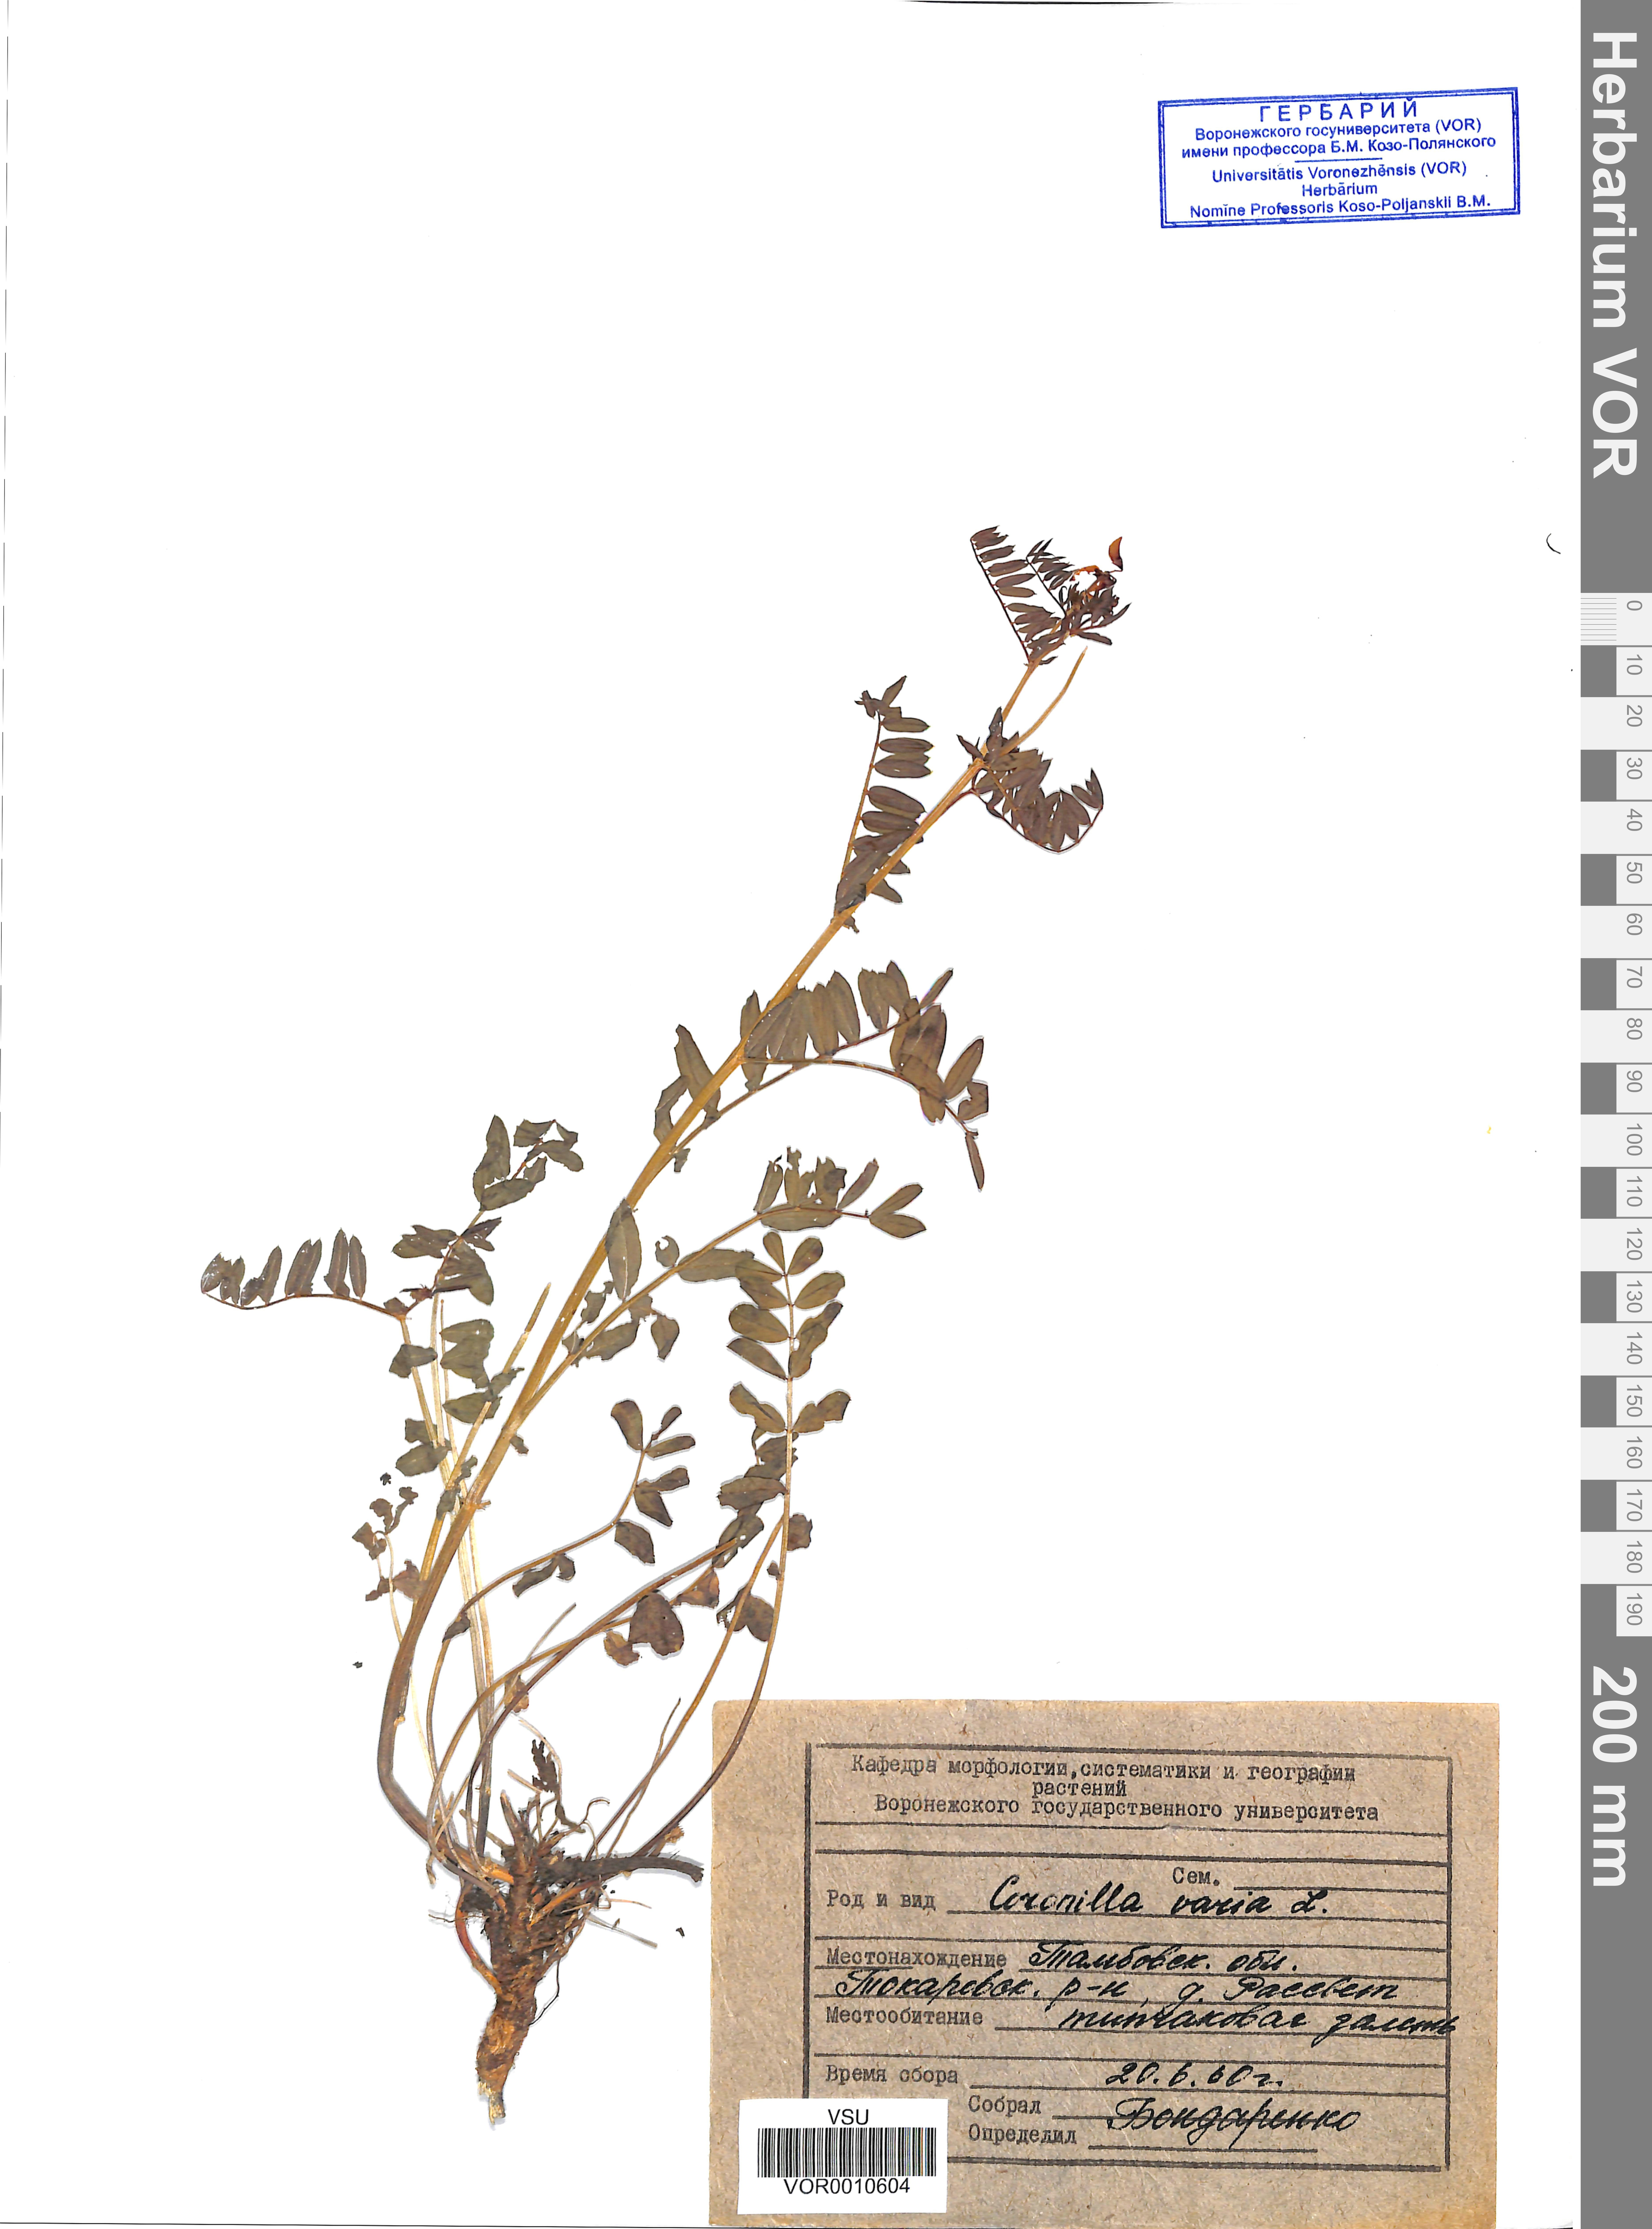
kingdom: Plantae
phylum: Tracheophyta
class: Magnoliopsida
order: Fabales
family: Fabaceae
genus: Coronilla
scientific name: Coronilla varia
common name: Crownvetch
